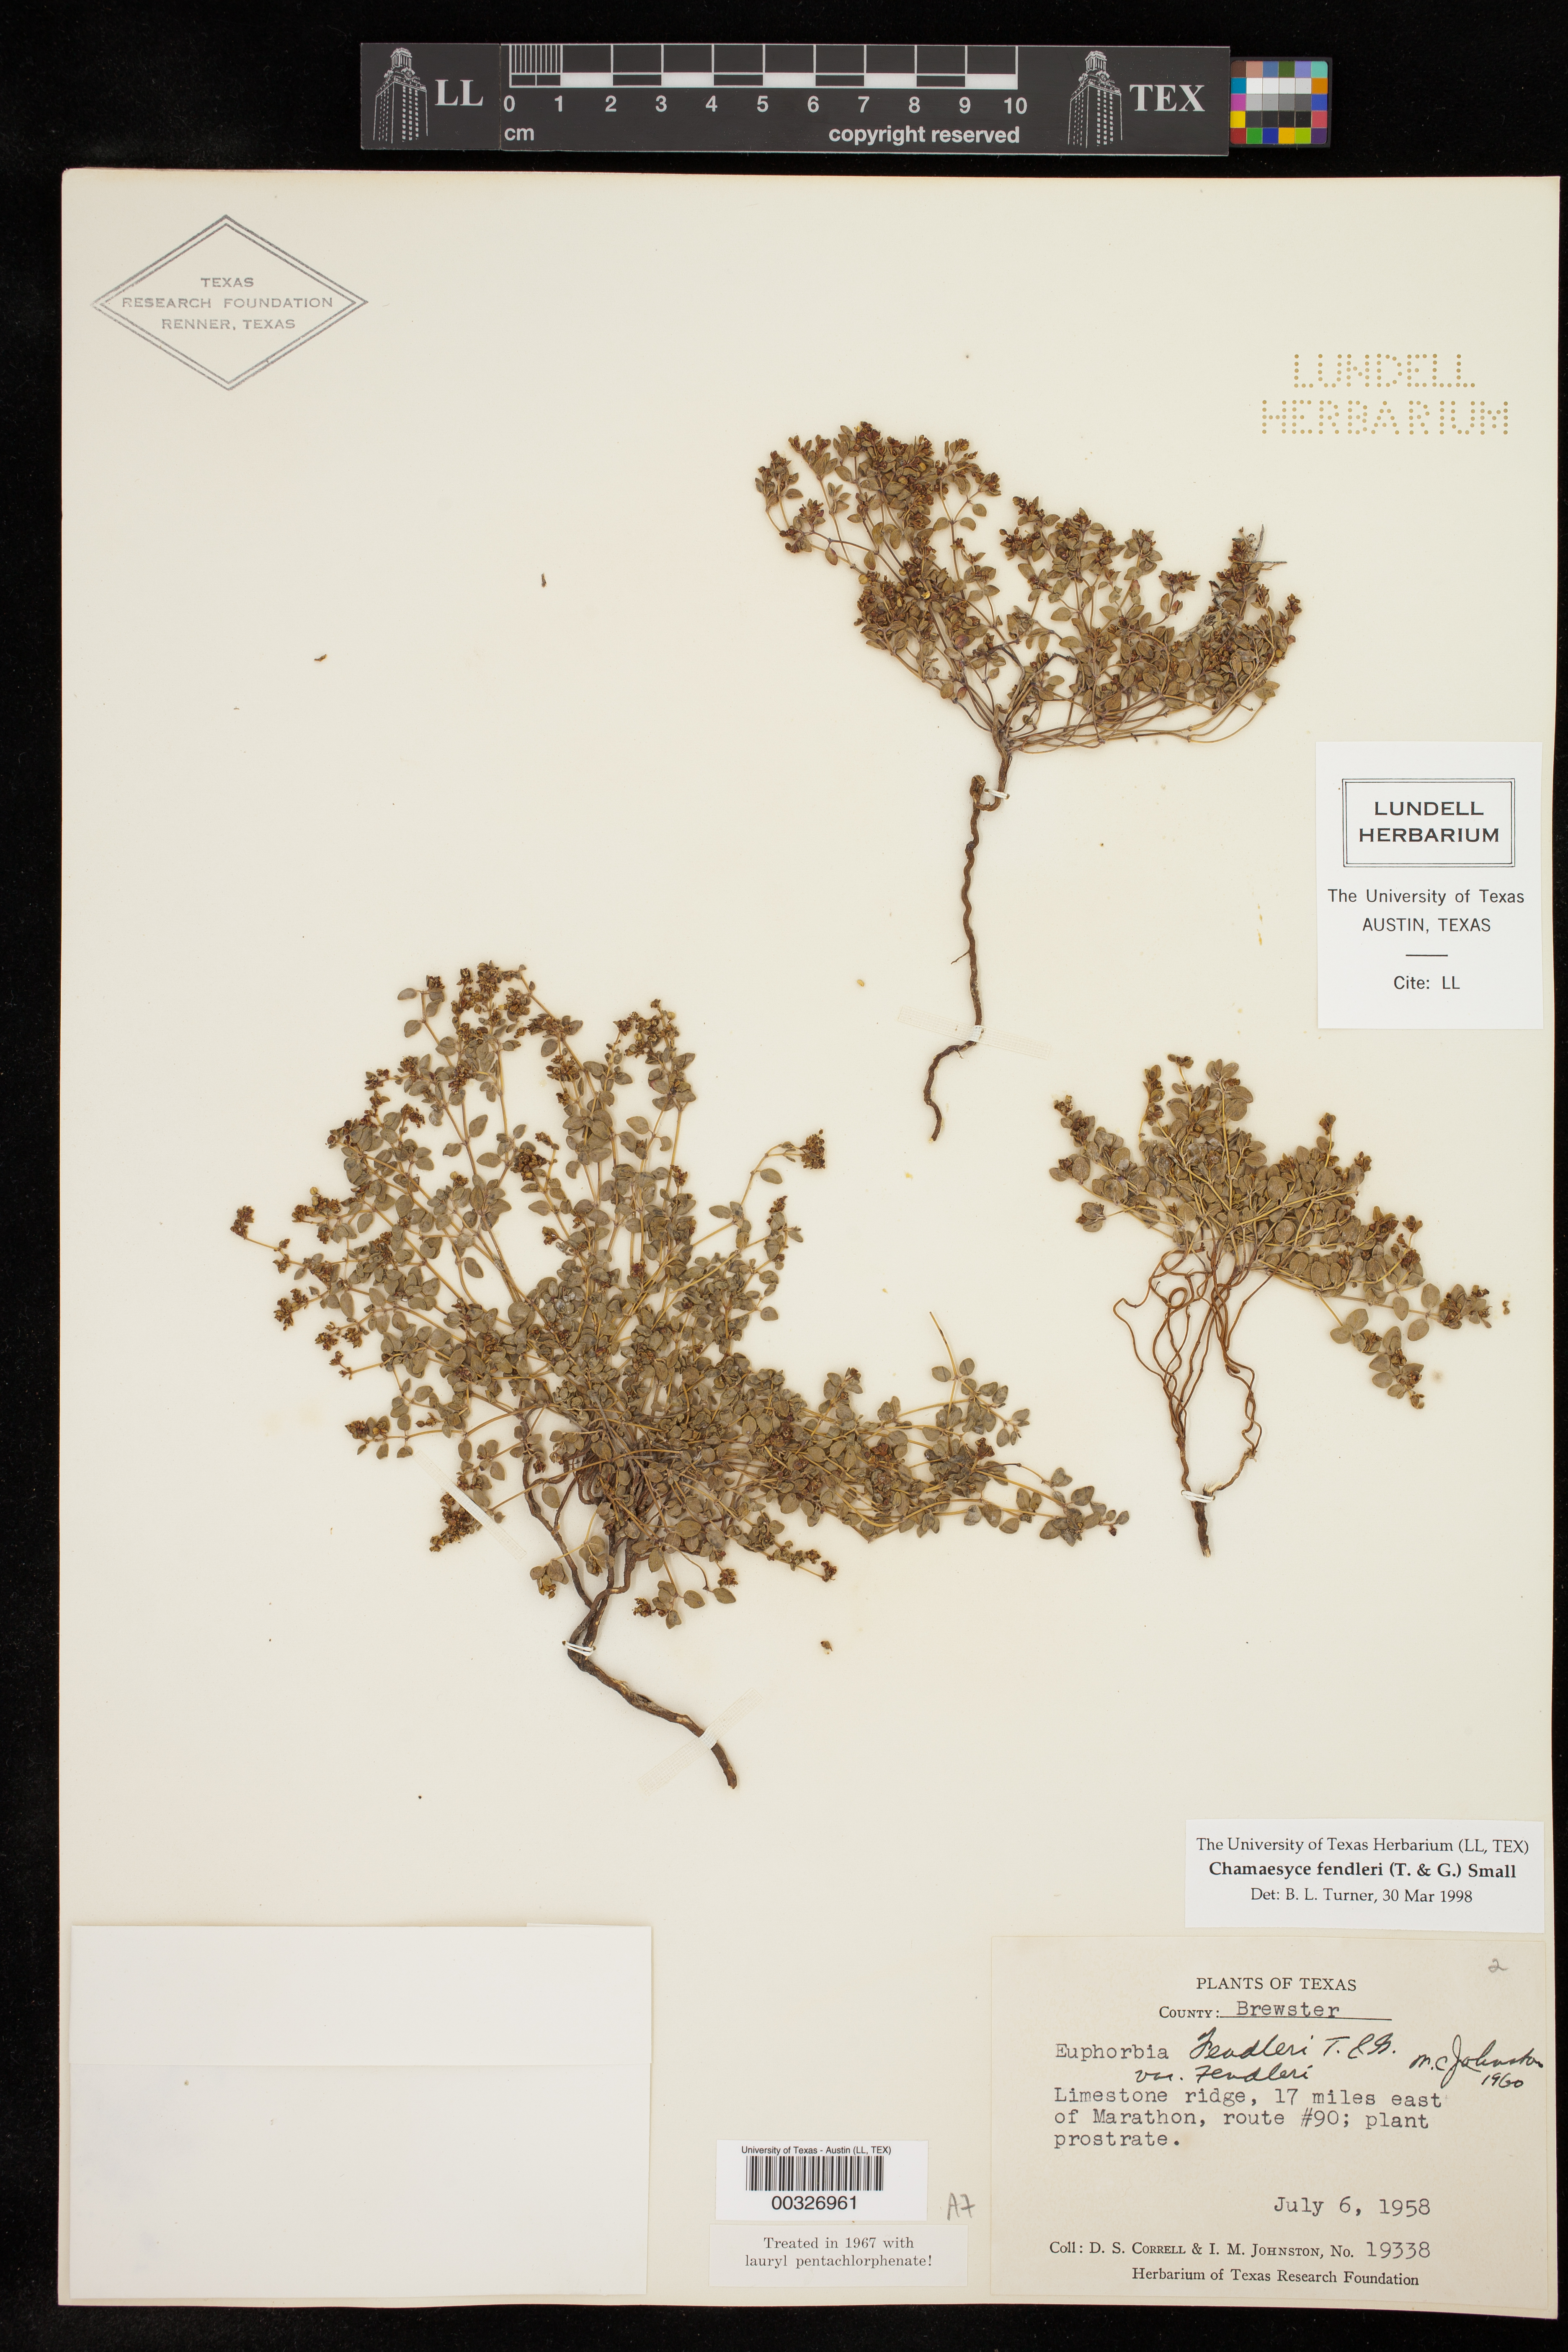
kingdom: Plantae
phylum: Tracheophyta
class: Magnoliopsida
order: Malpighiales
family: Euphorbiaceae
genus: Euphorbia
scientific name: Euphorbia fendleri
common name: Fendler's euphorbia
